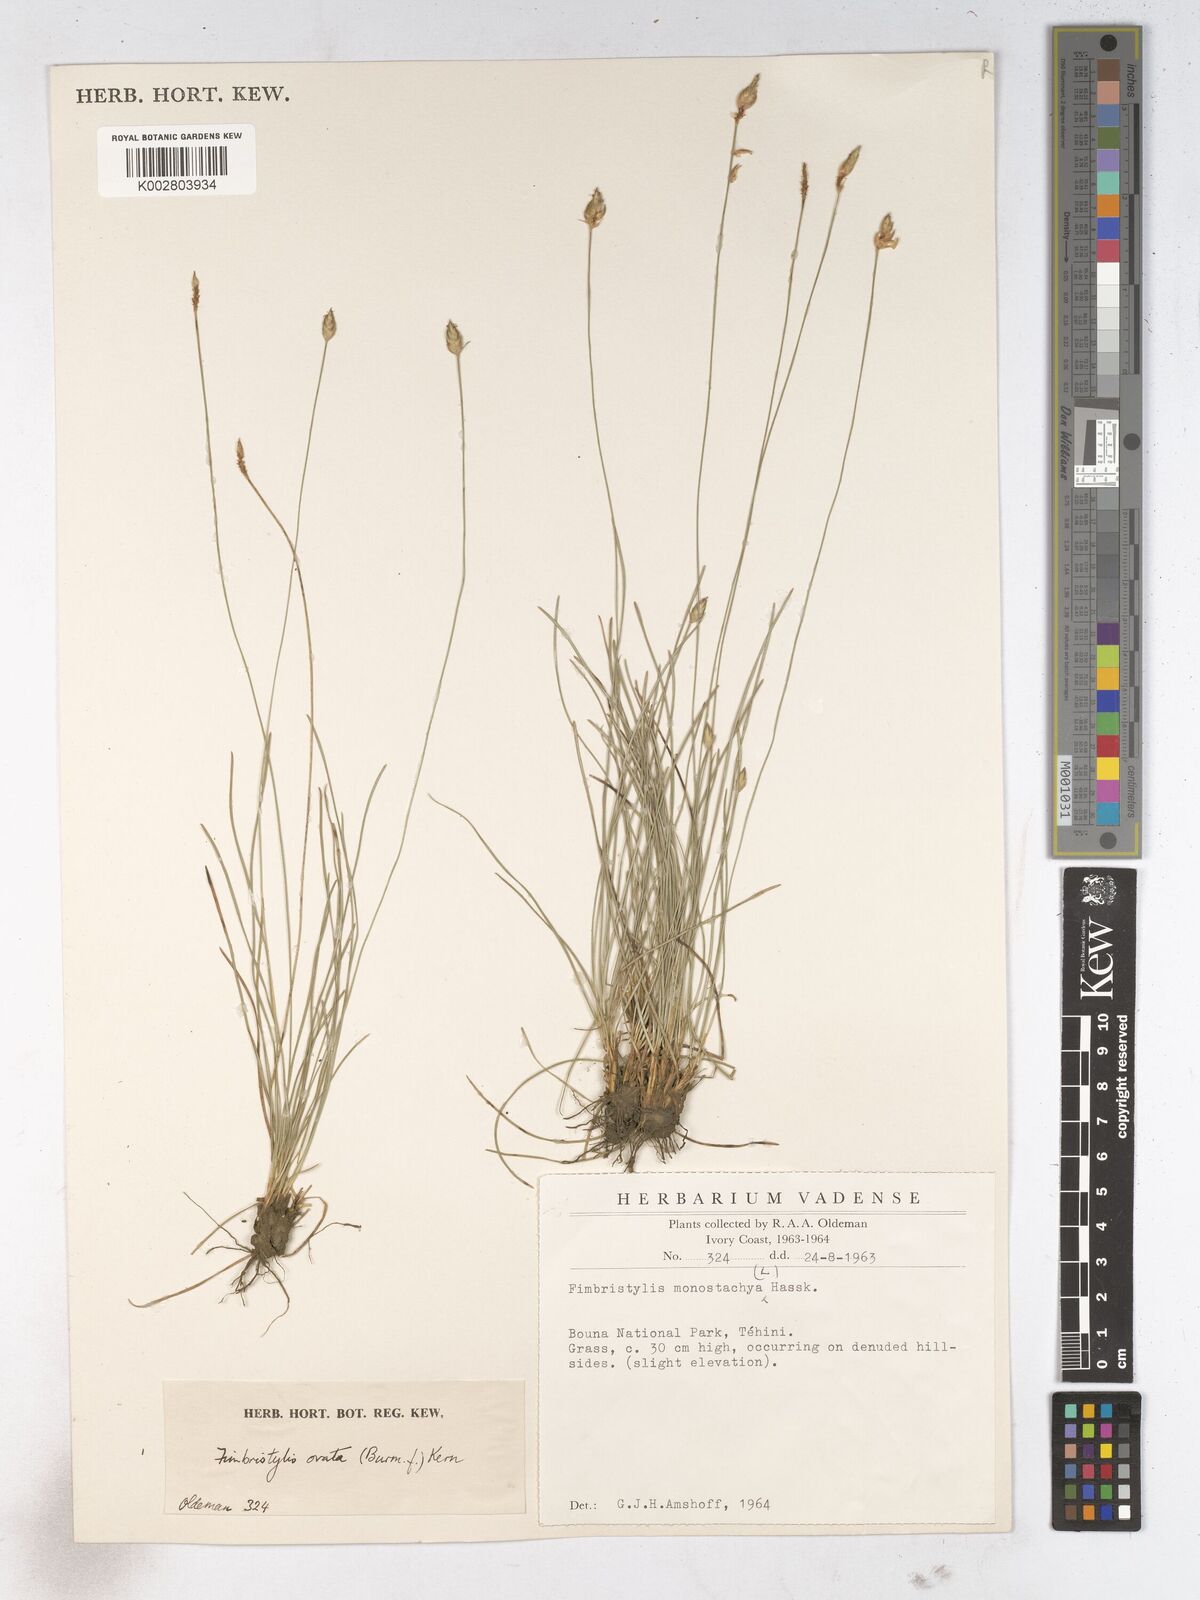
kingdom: Plantae
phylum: Tracheophyta
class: Liliopsida
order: Poales
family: Cyperaceae
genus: Abildgaardia
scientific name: Abildgaardia ovata
